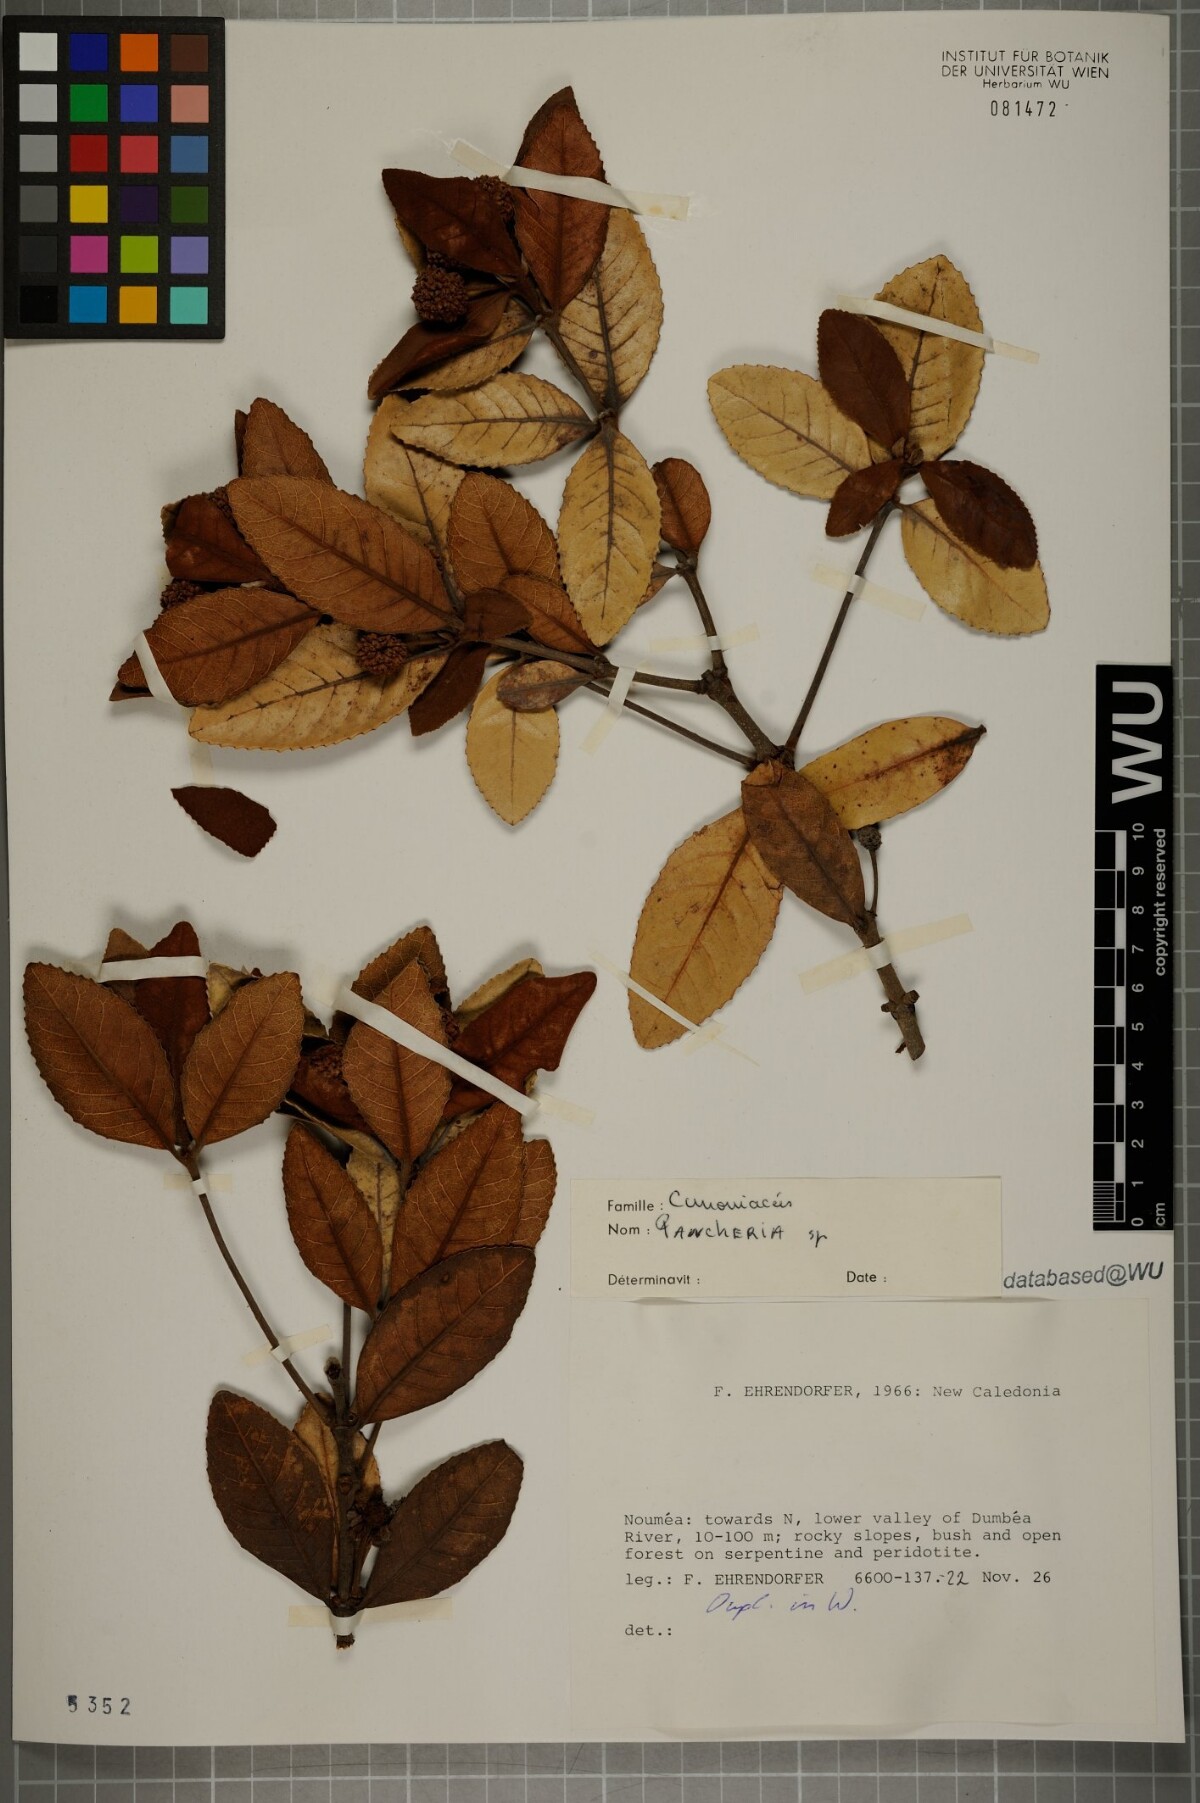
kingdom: Plantae
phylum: Tracheophyta
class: Magnoliopsida
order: Oxalidales
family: Cunoniaceae
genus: Pancheria
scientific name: Pancheria
